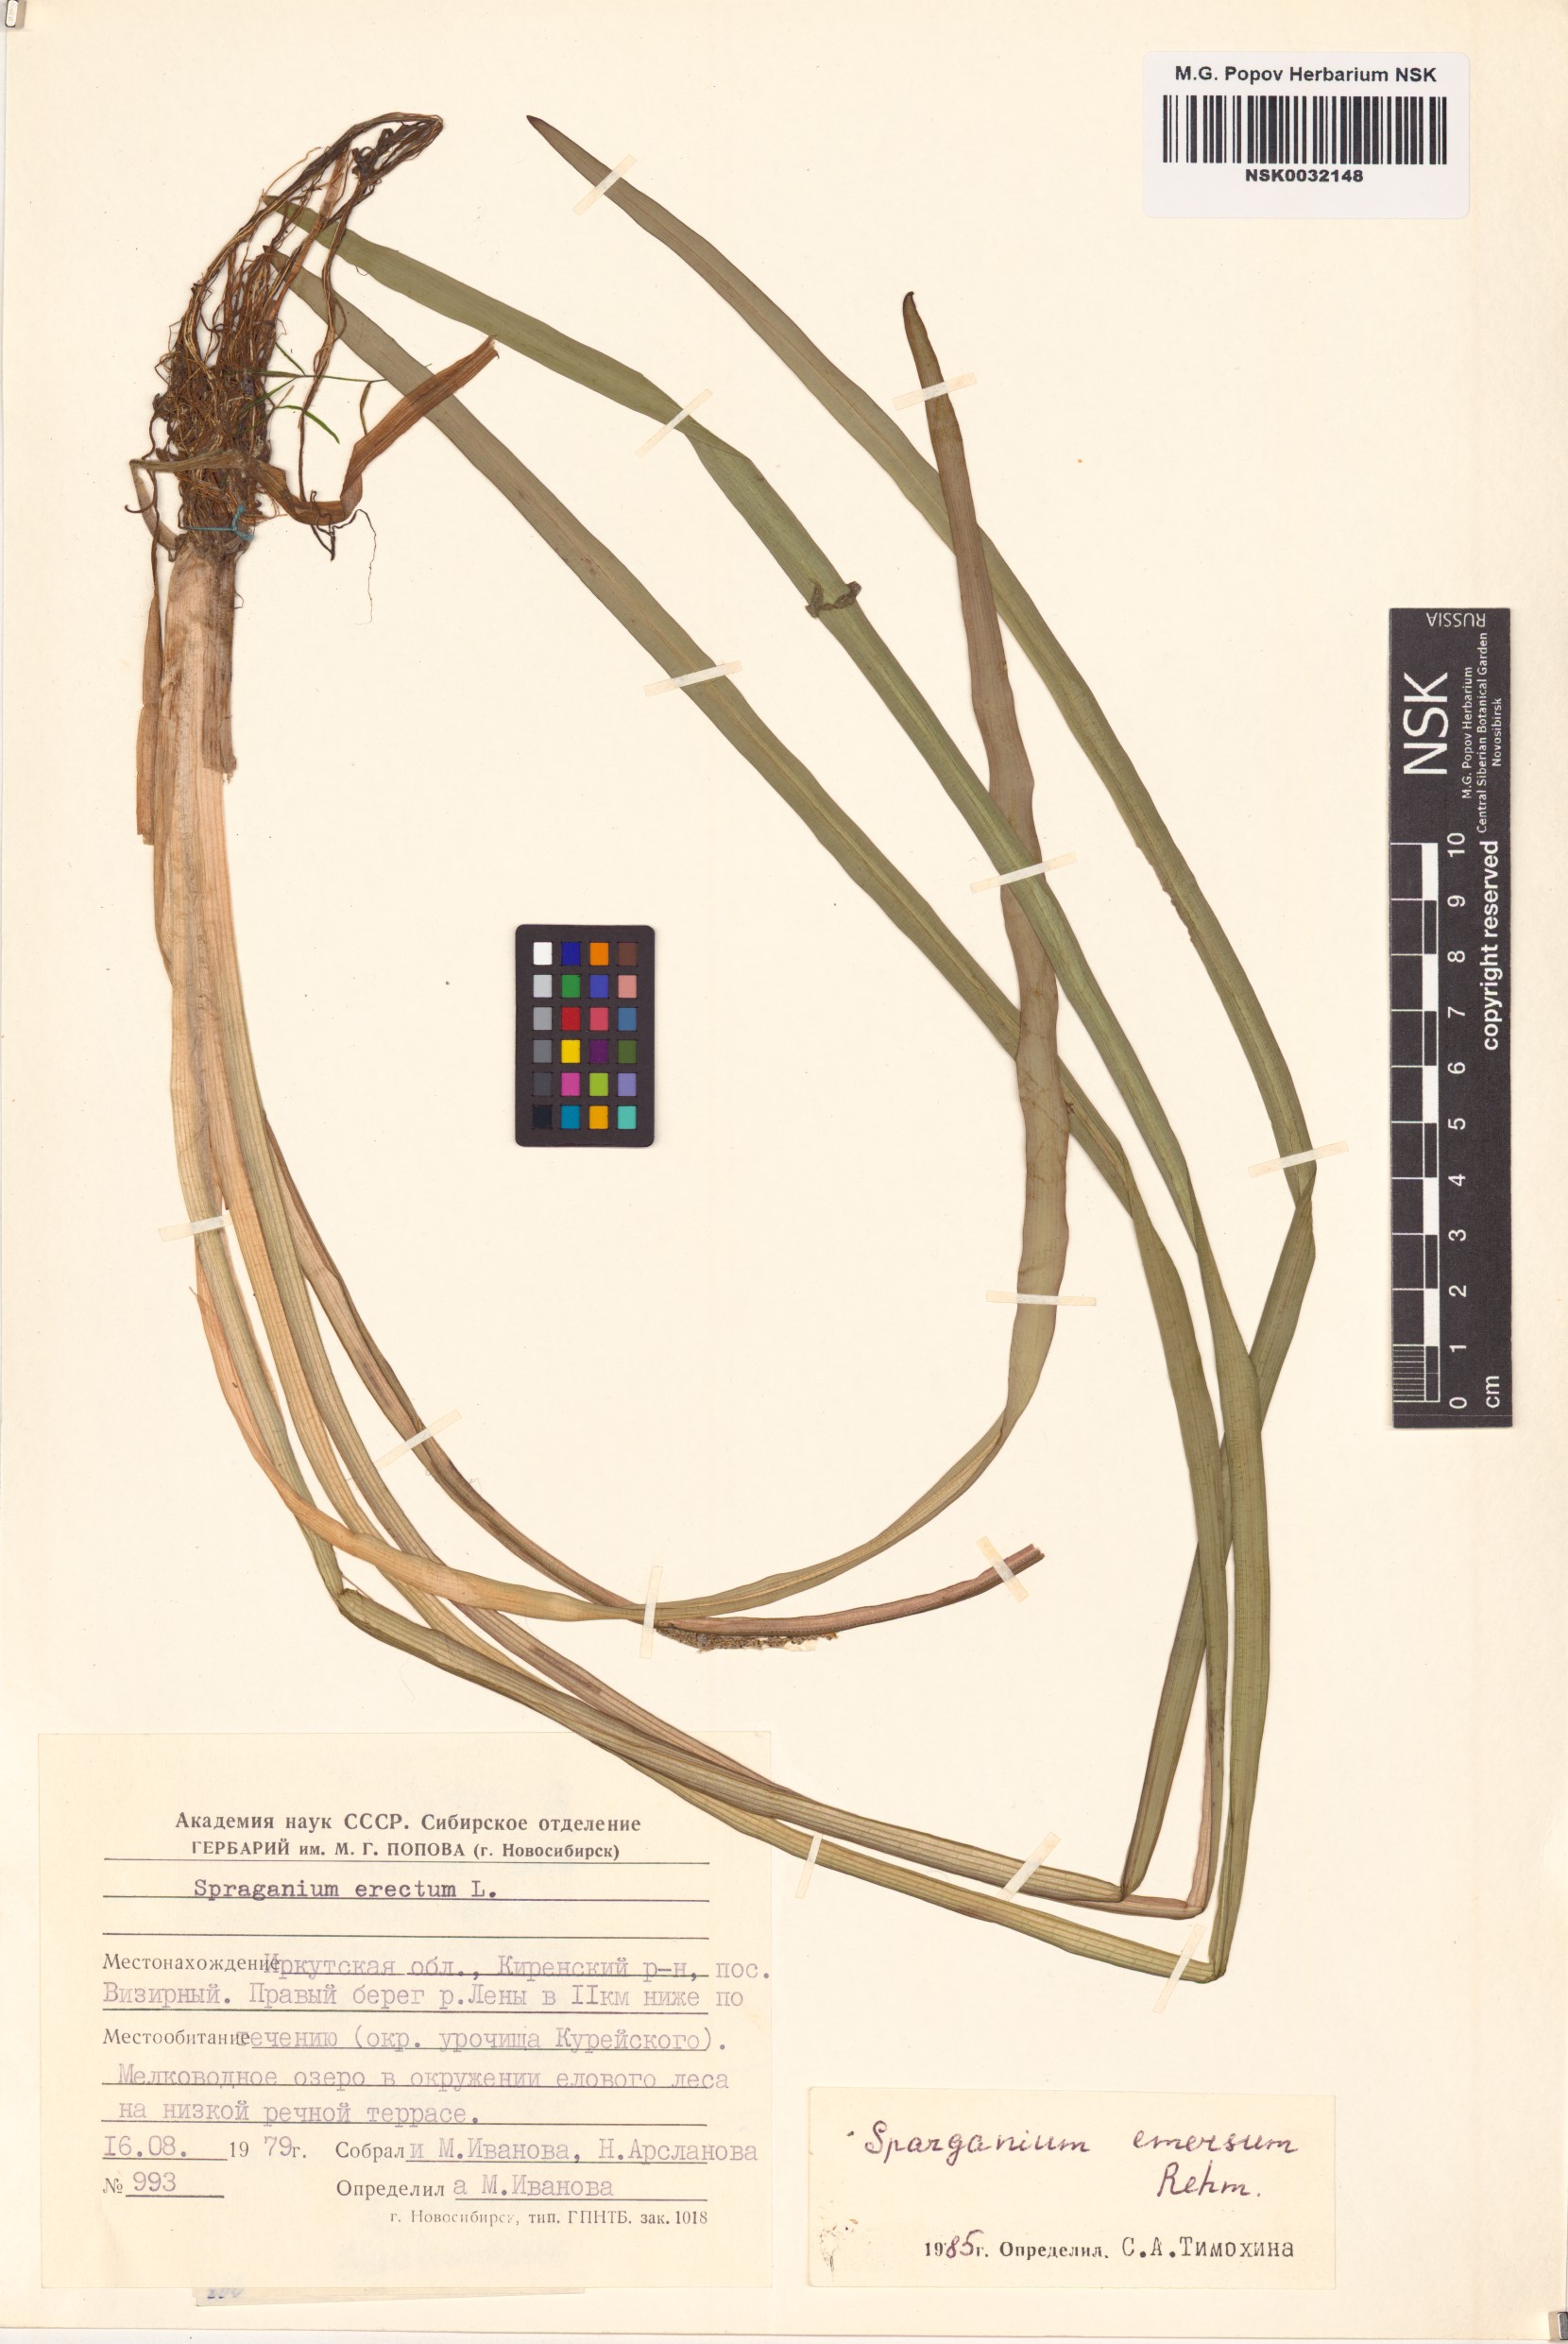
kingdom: Plantae
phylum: Tracheophyta
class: Liliopsida
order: Poales
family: Typhaceae
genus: Sparganium
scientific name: Sparganium emersum
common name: Unbranched bur-reed
